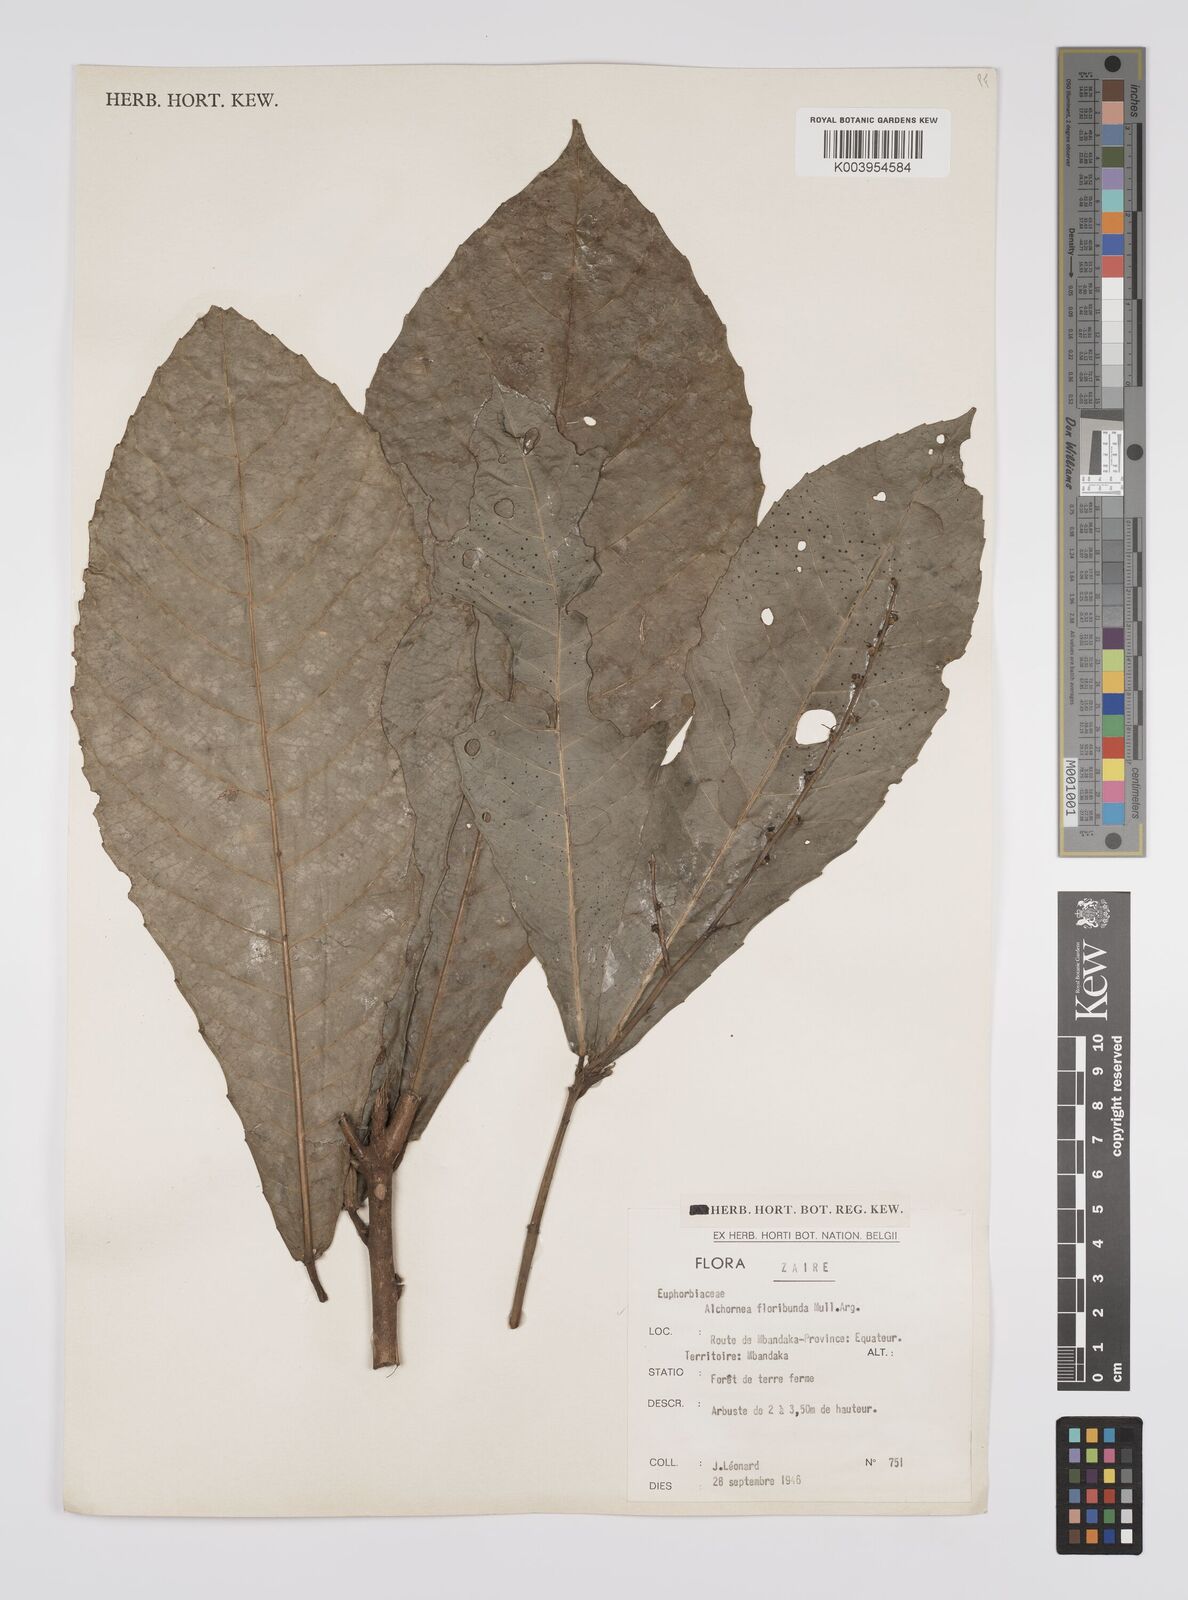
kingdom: Plantae
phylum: Tracheophyta
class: Magnoliopsida
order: Malpighiales
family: Euphorbiaceae
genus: Alchornea
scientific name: Alchornea floribunda
